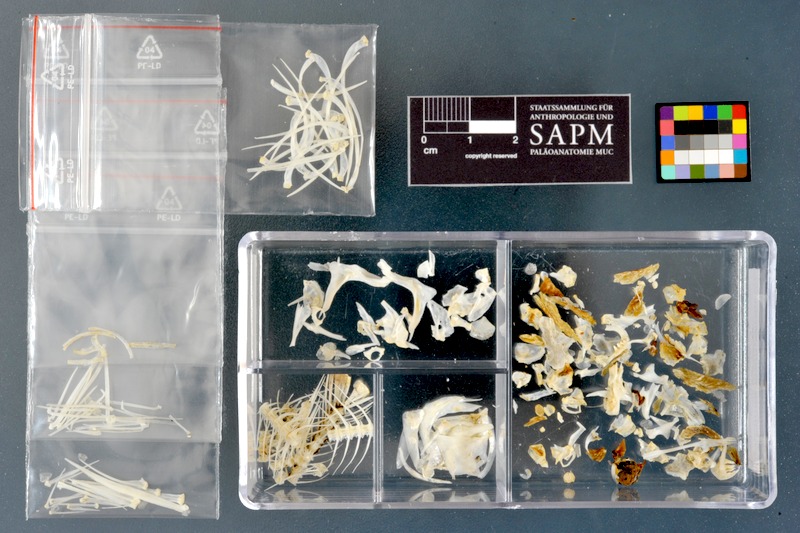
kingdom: Animalia
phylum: Chordata
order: Cypriniformes
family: Cyprinidae
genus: Acanthobrama
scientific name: Acanthobrama marmid
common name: Mesopotamian bream
